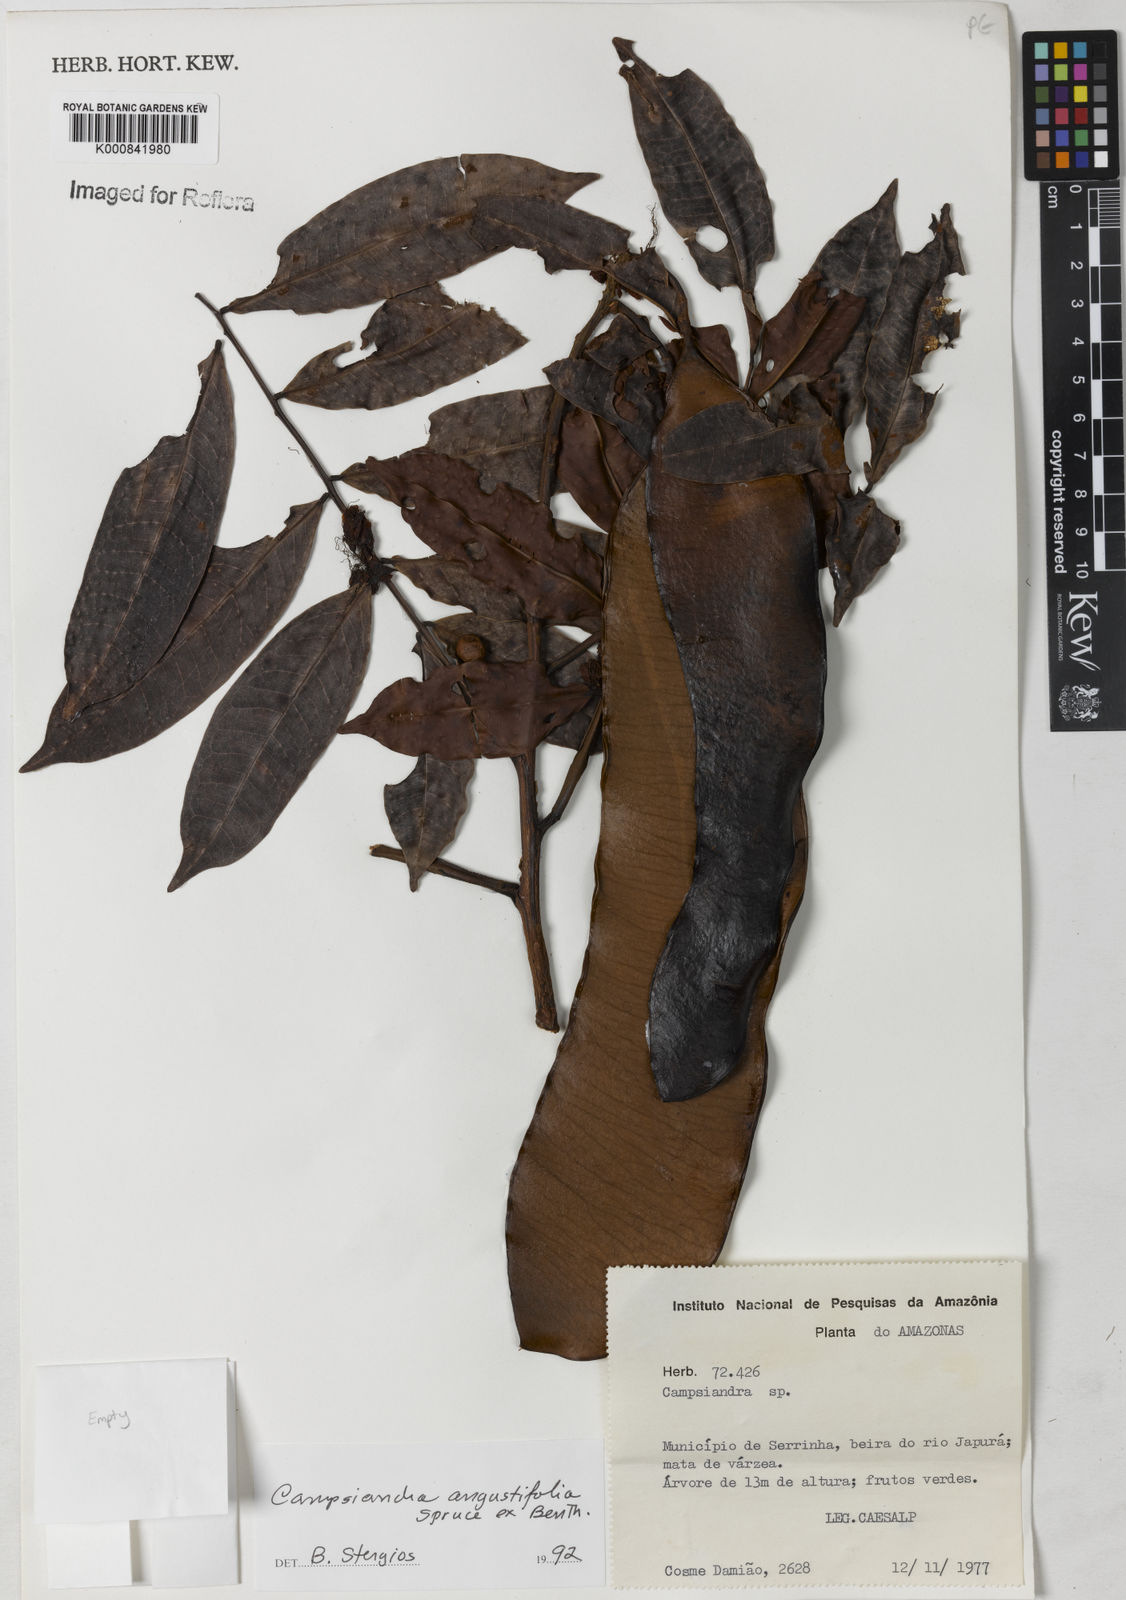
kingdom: Plantae
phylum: Tracheophyta
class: Magnoliopsida
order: Fabales
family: Fabaceae
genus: Campsiandra
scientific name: Campsiandra
